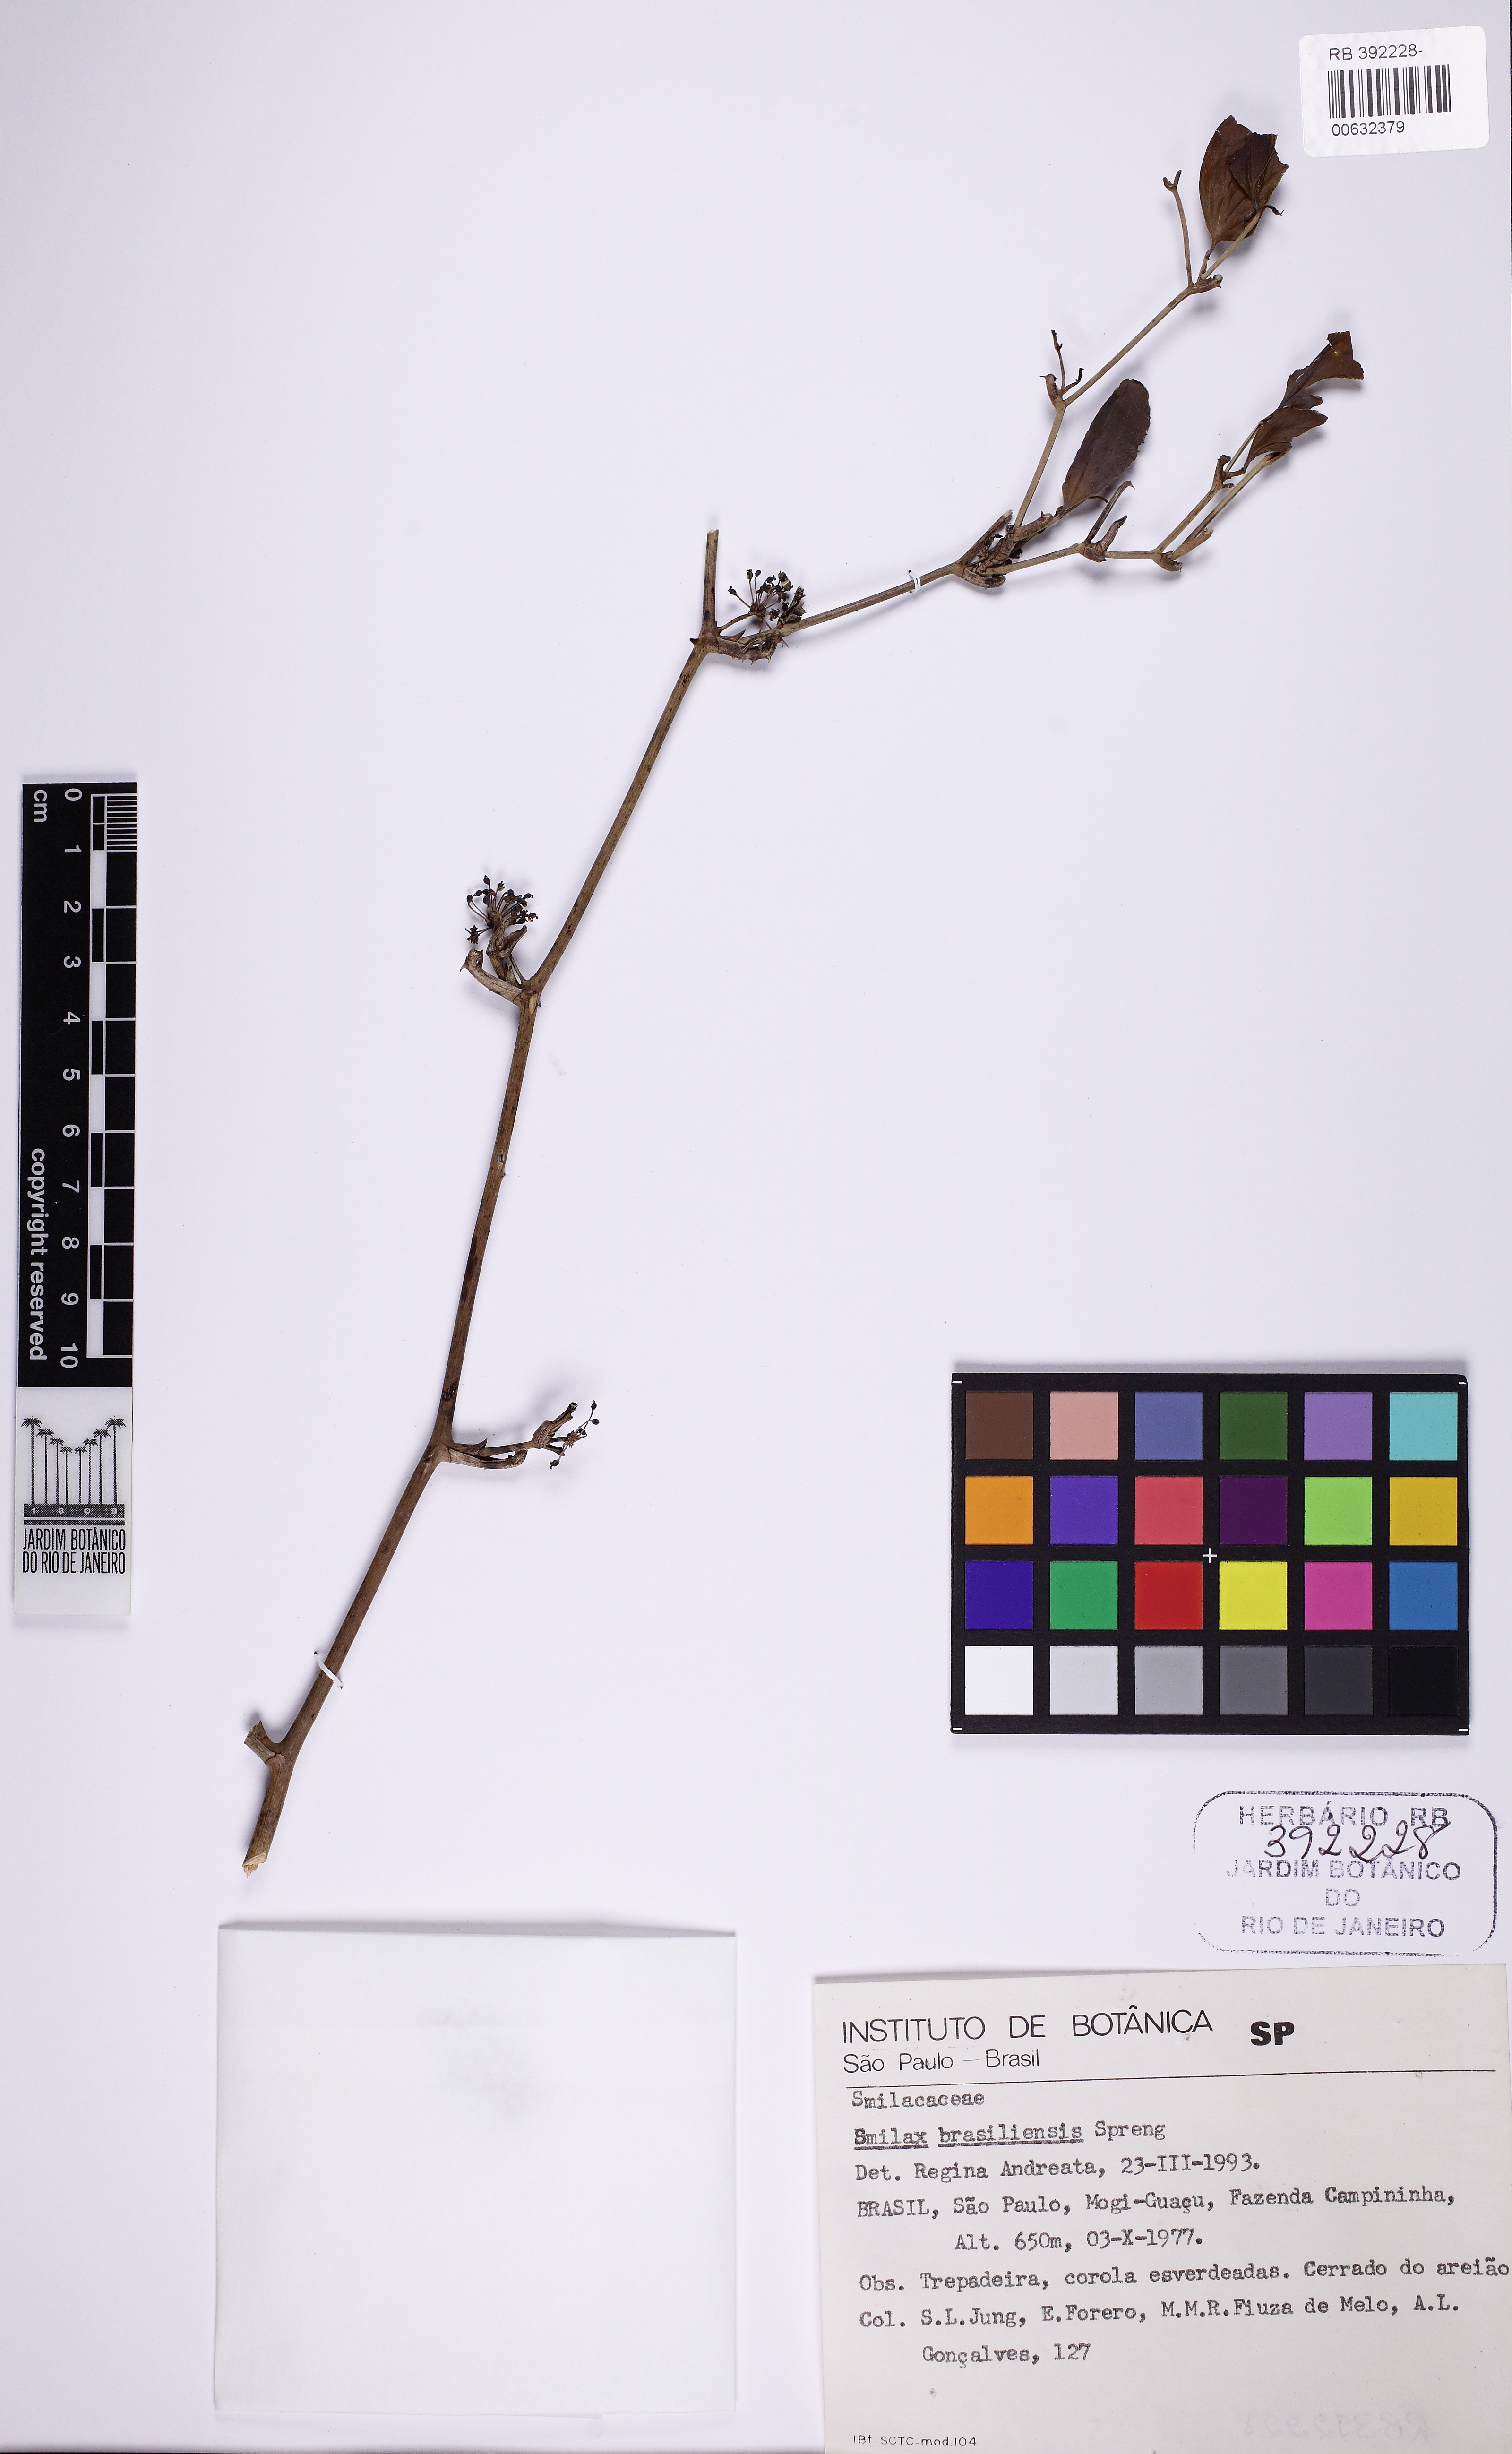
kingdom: Plantae
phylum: Tracheophyta
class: Liliopsida
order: Liliales
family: Smilacaceae
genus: Smilax
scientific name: Smilax brasiliensis
